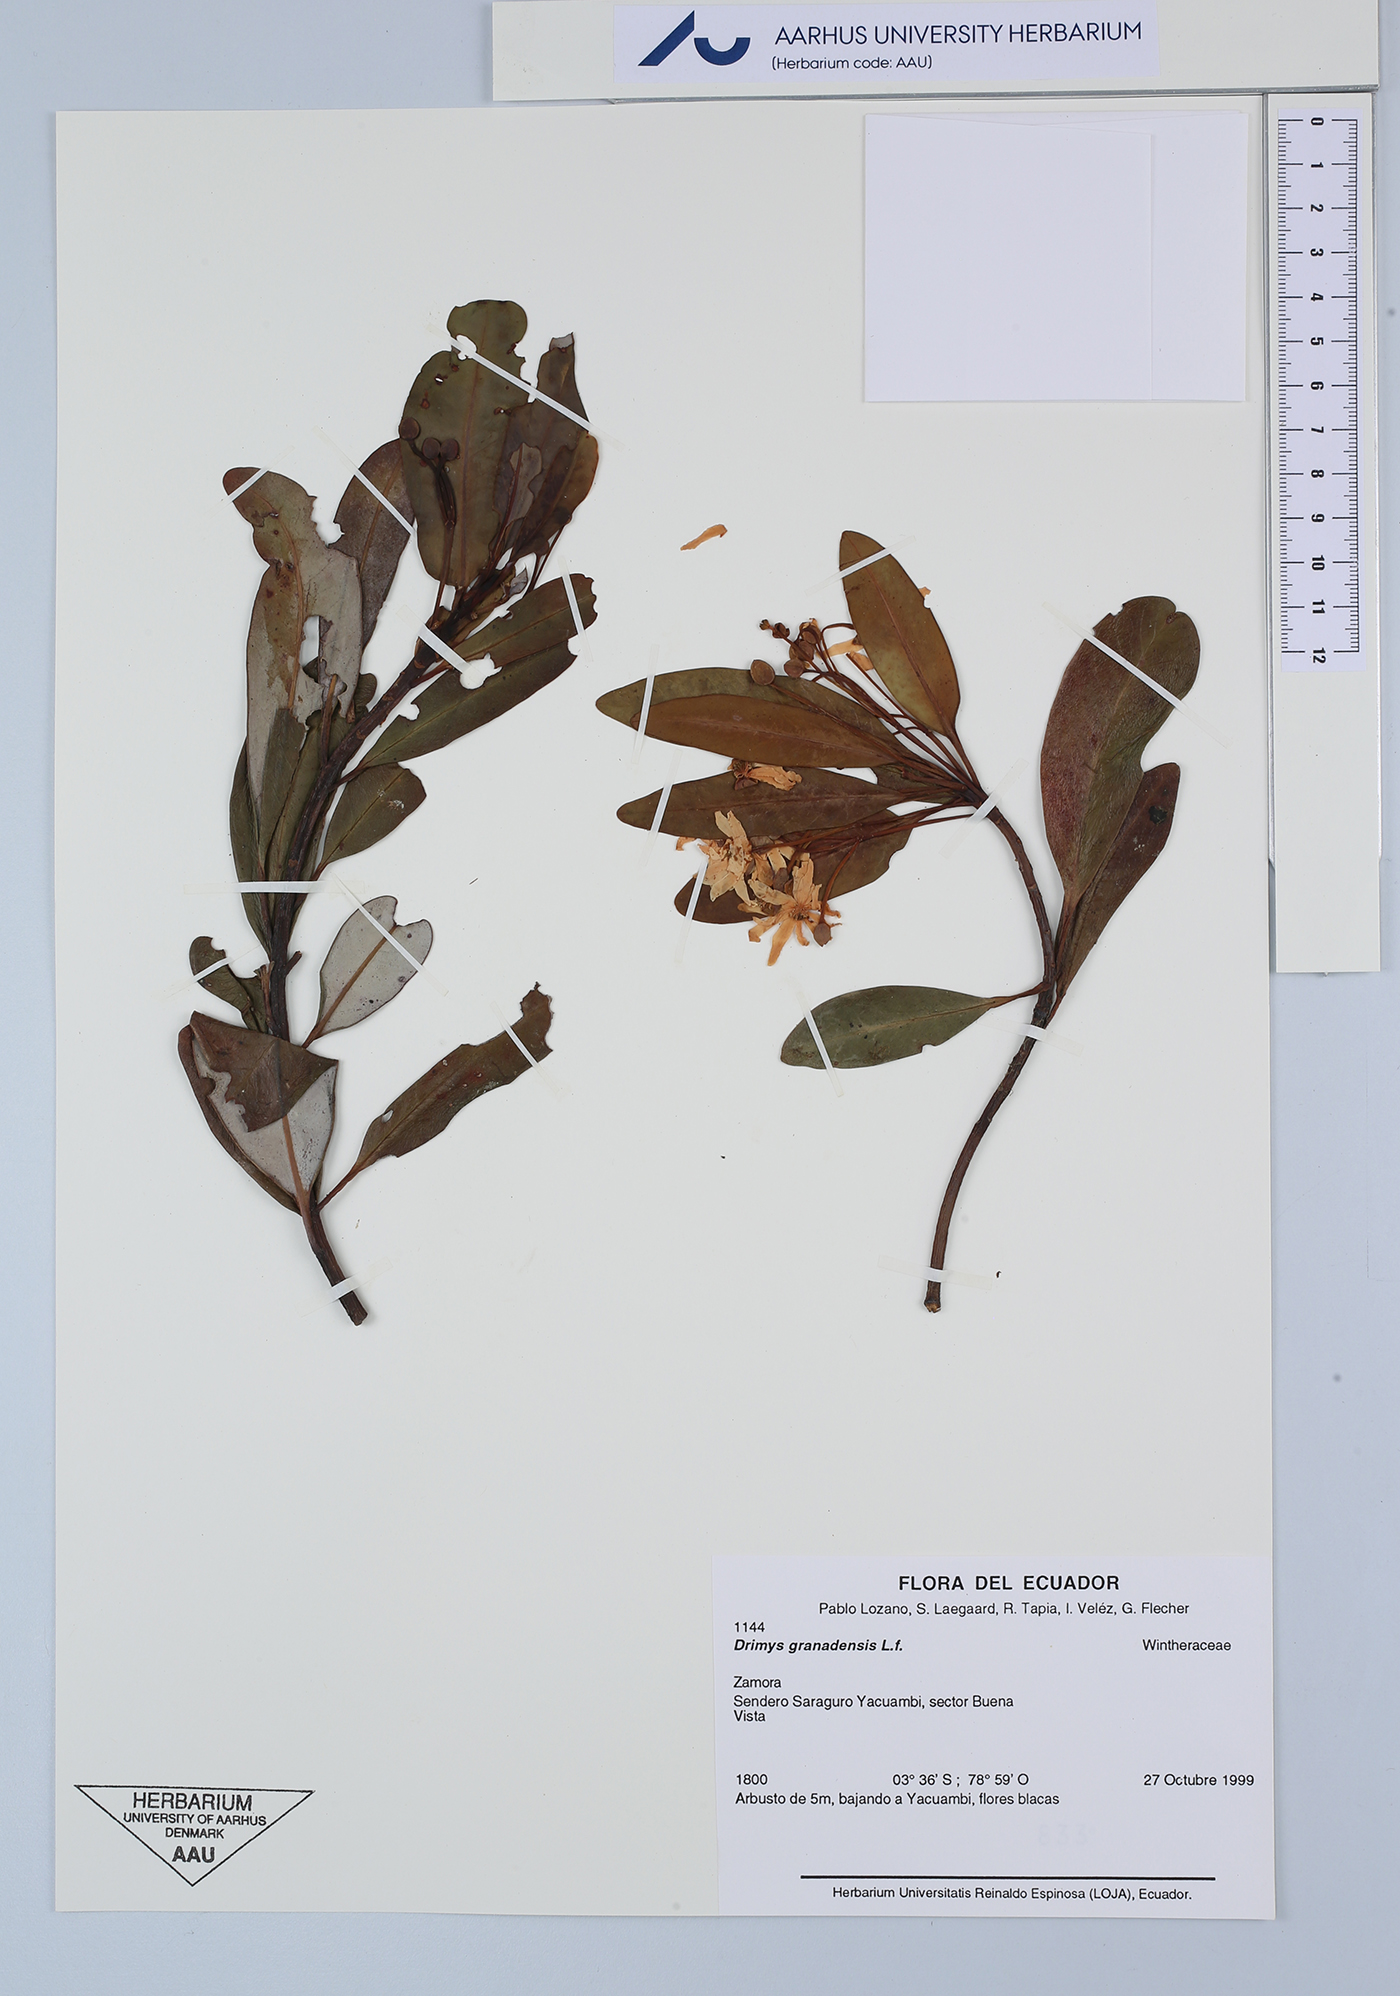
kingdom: Plantae
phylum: Tracheophyta
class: Magnoliopsida
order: Canellales
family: Winteraceae
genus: Drimys
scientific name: Drimys granadensis
